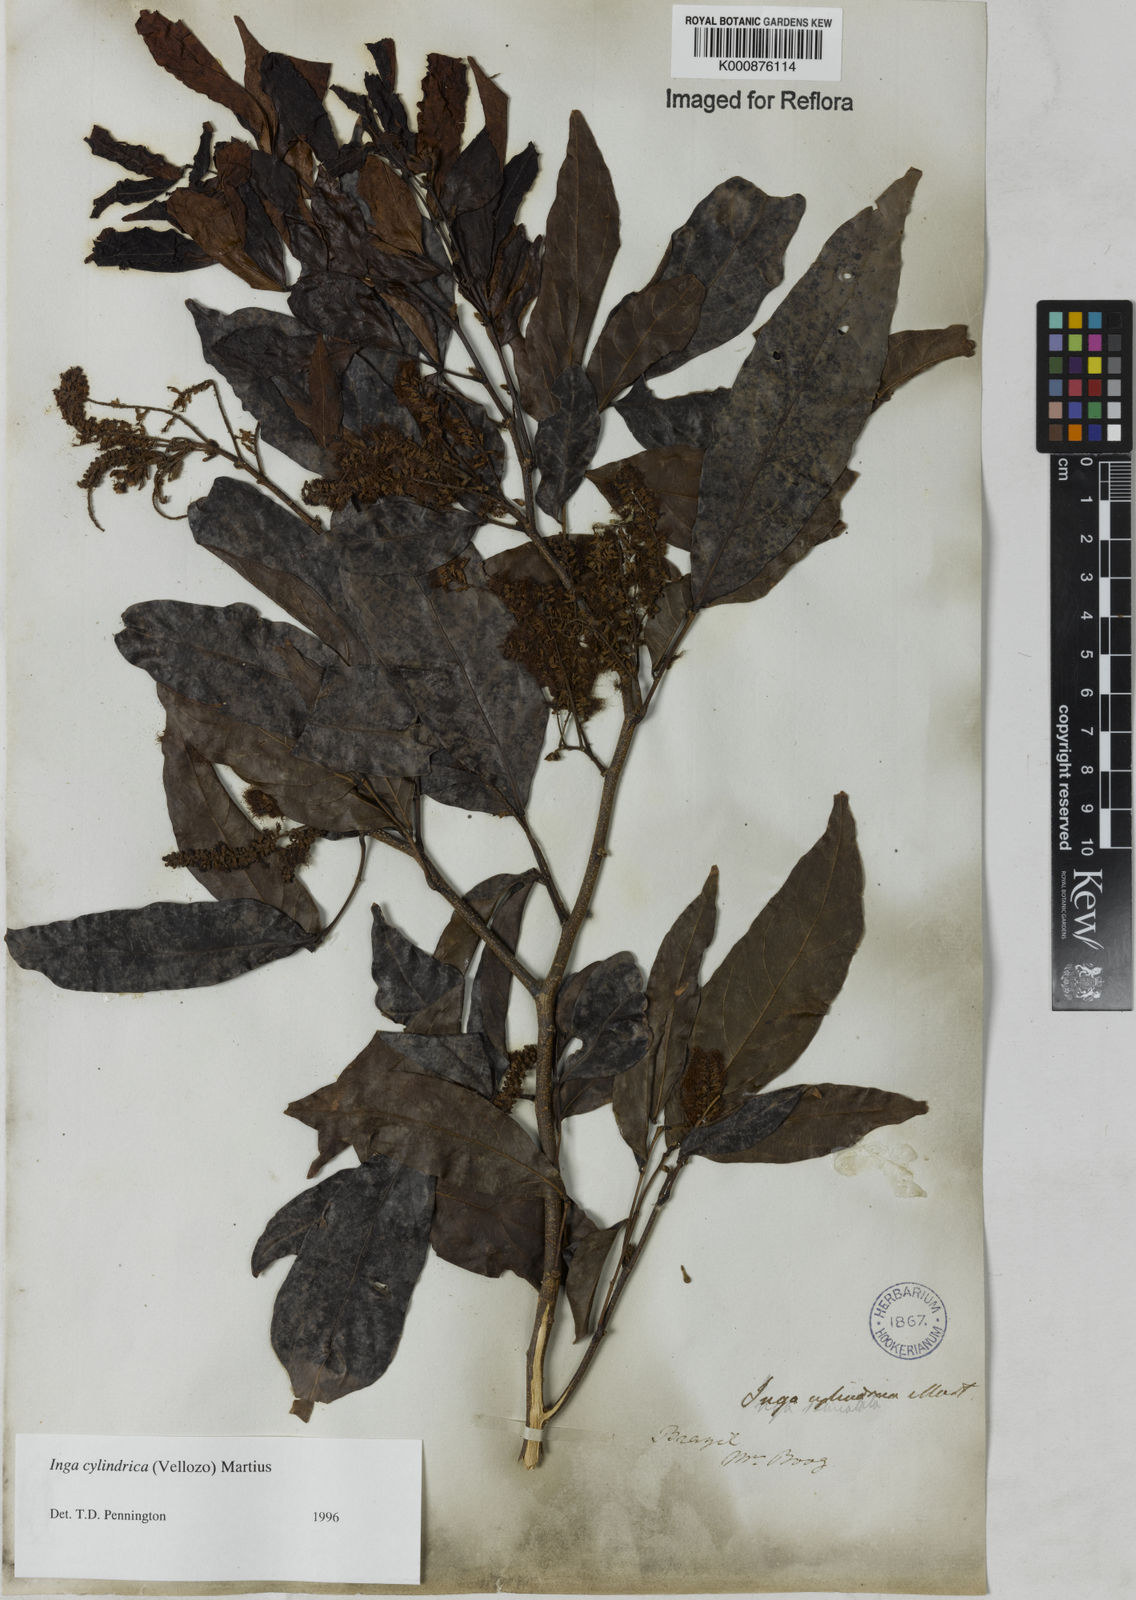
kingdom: Plantae
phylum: Tracheophyta
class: Magnoliopsida
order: Fabales
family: Fabaceae
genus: Inga
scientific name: Inga cylindrica
